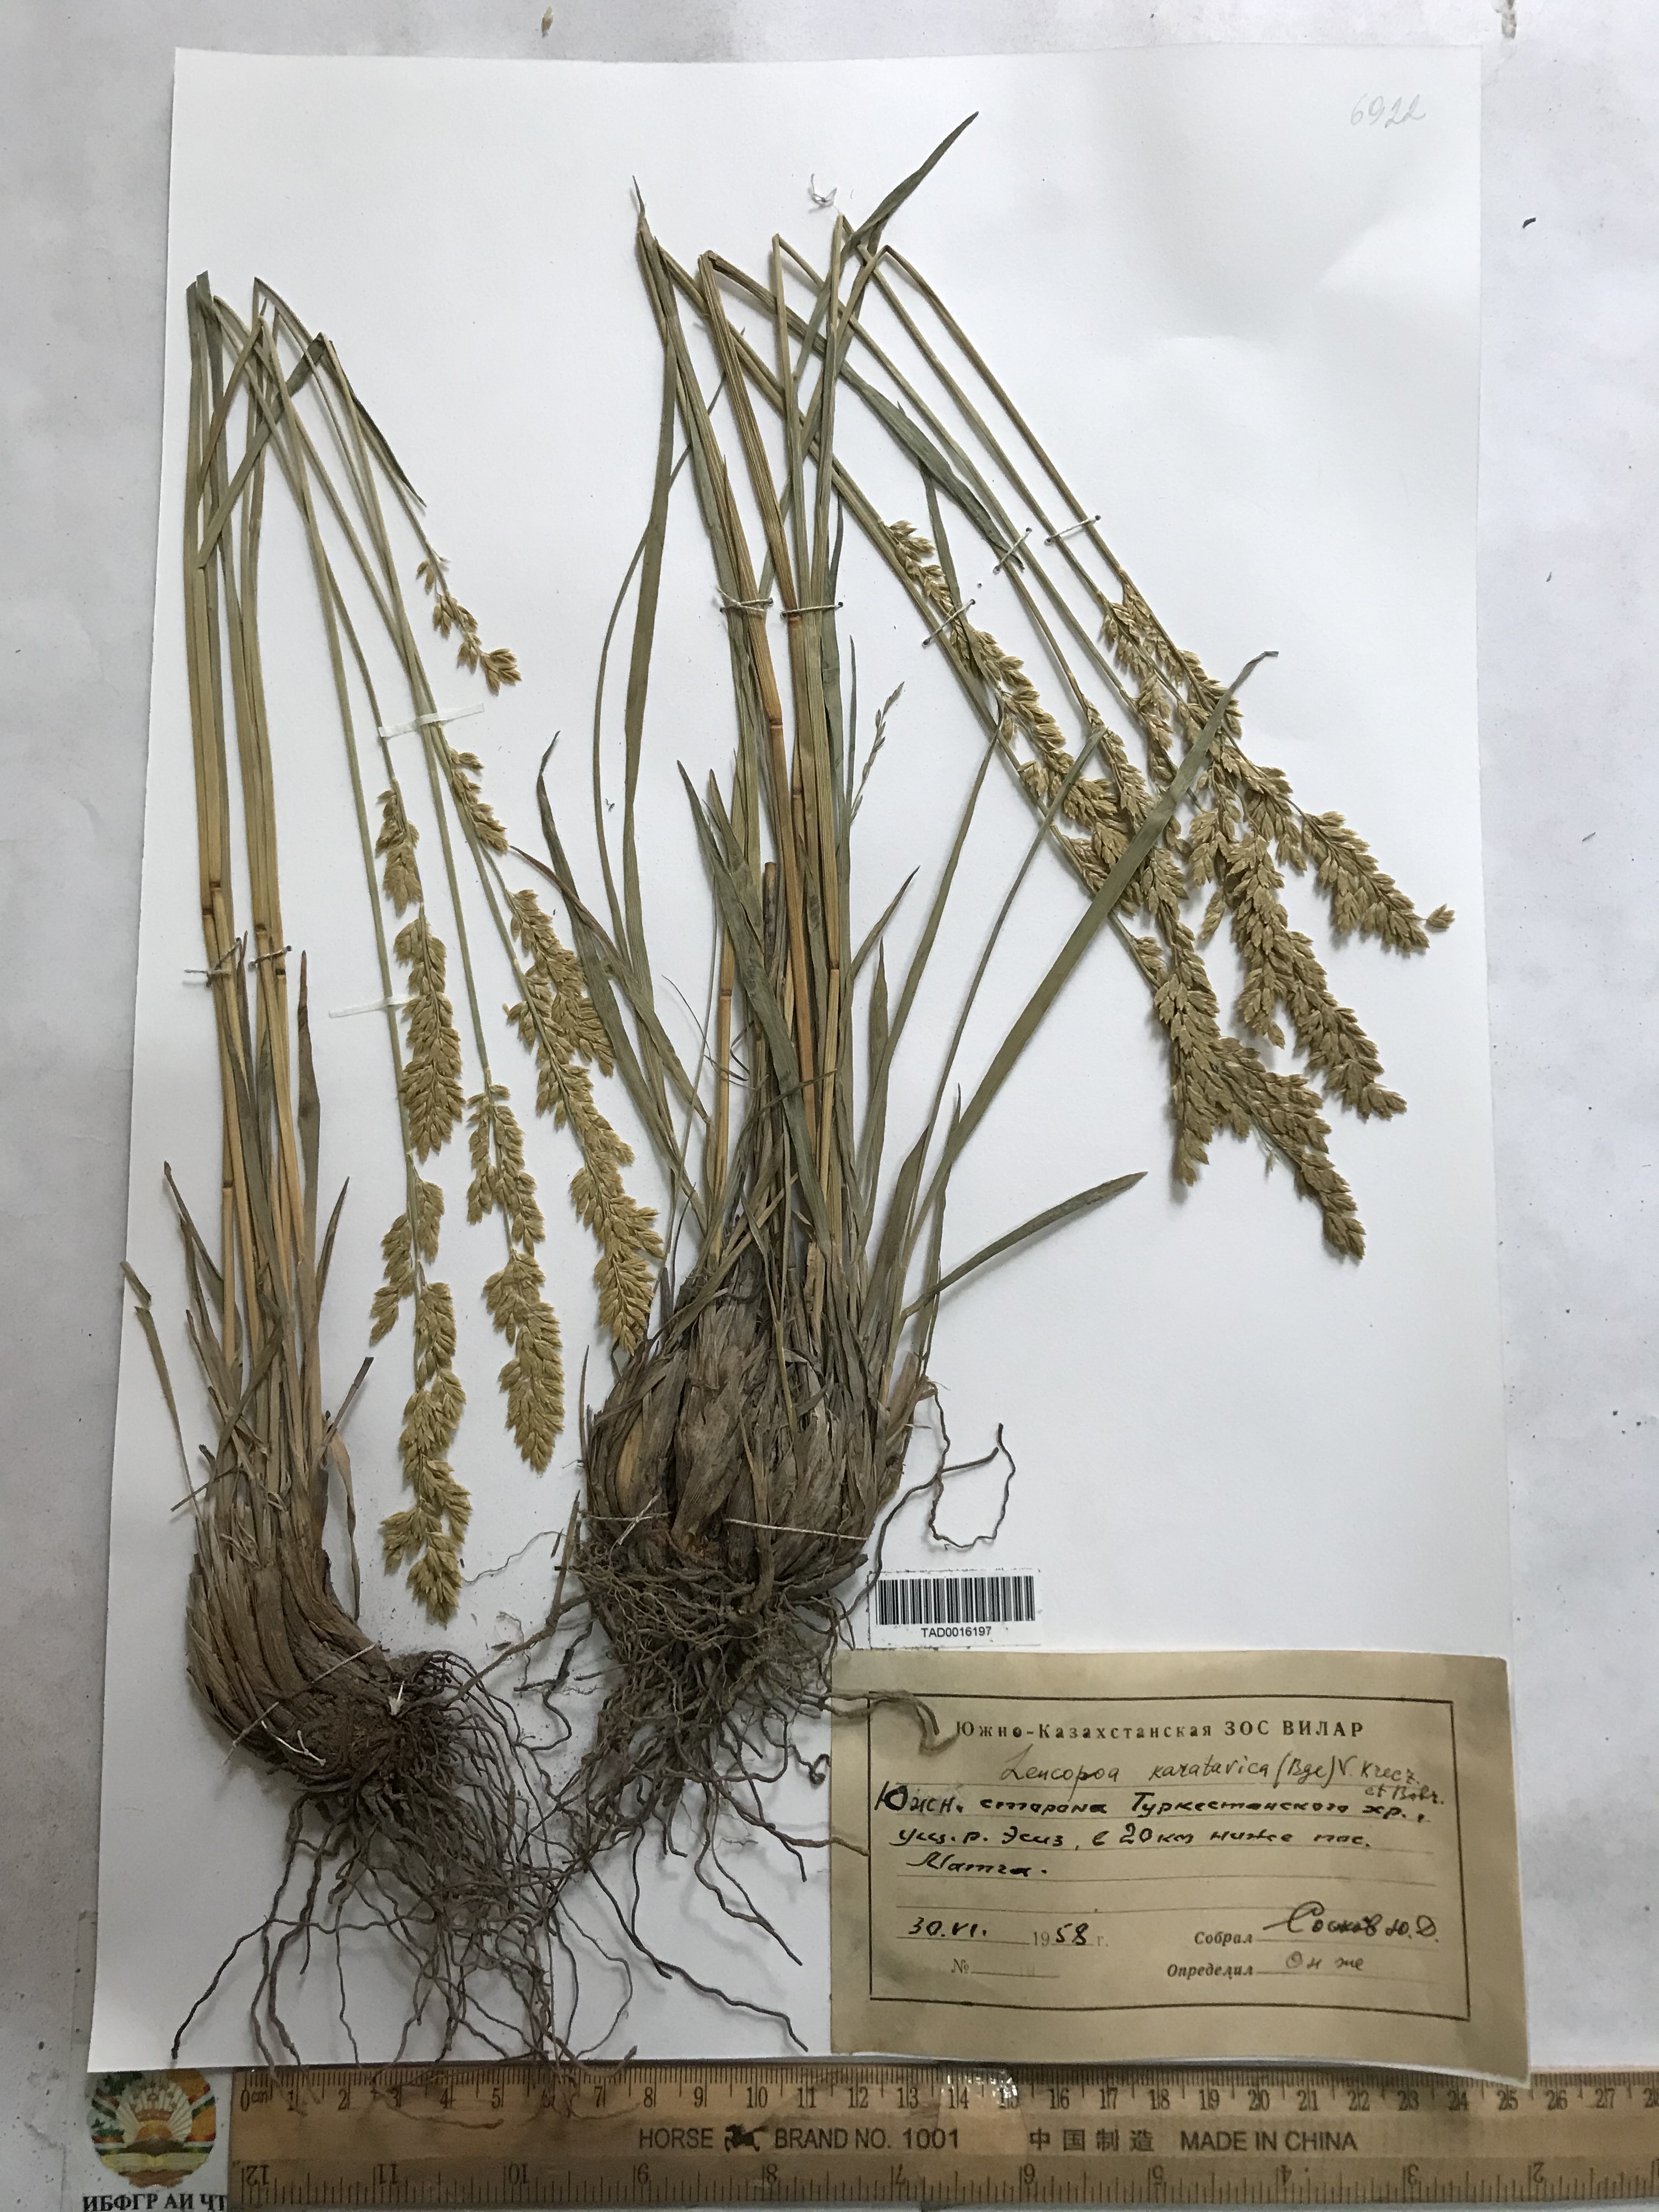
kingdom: Plantae
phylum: Tracheophyta
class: Liliopsida
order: Poales
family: Poaceae
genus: Festuca
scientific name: Festuca karatavica
